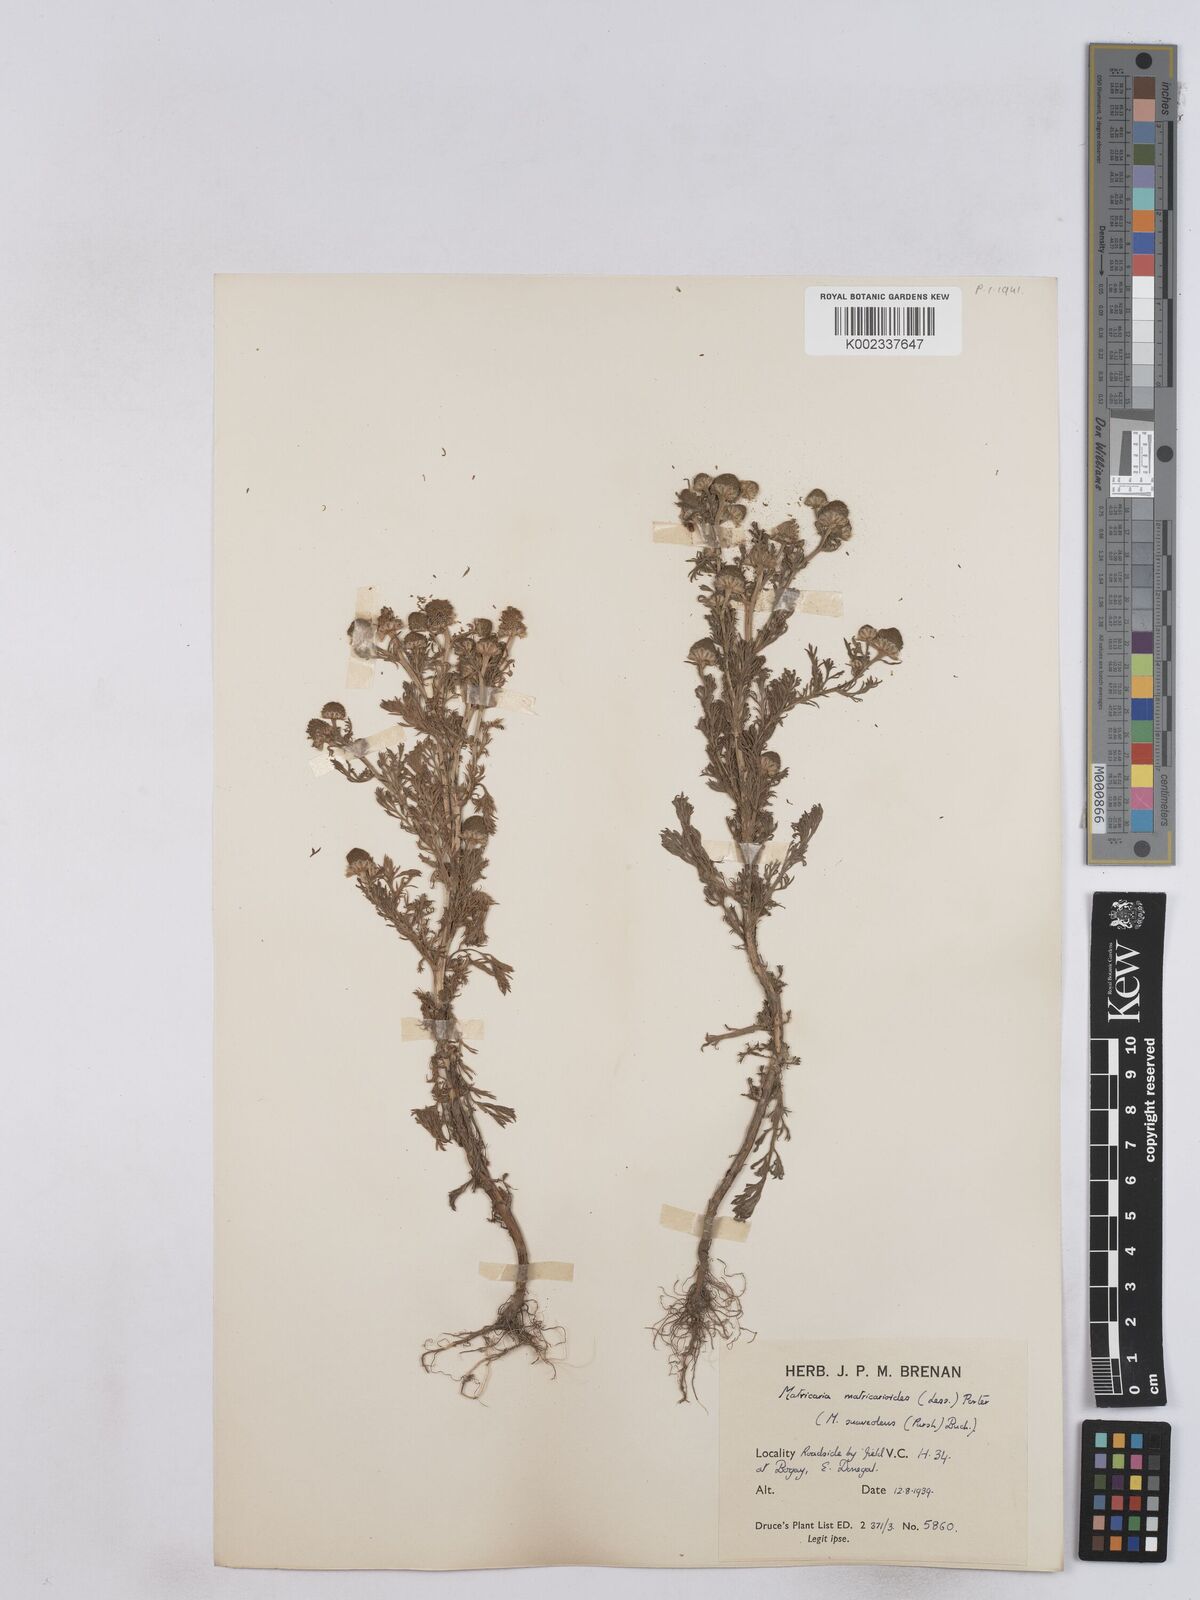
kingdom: Plantae
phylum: Tracheophyta
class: Magnoliopsida
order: Asterales
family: Asteraceae
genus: Matricaria
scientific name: Matricaria discoidea
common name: Disc mayweed
